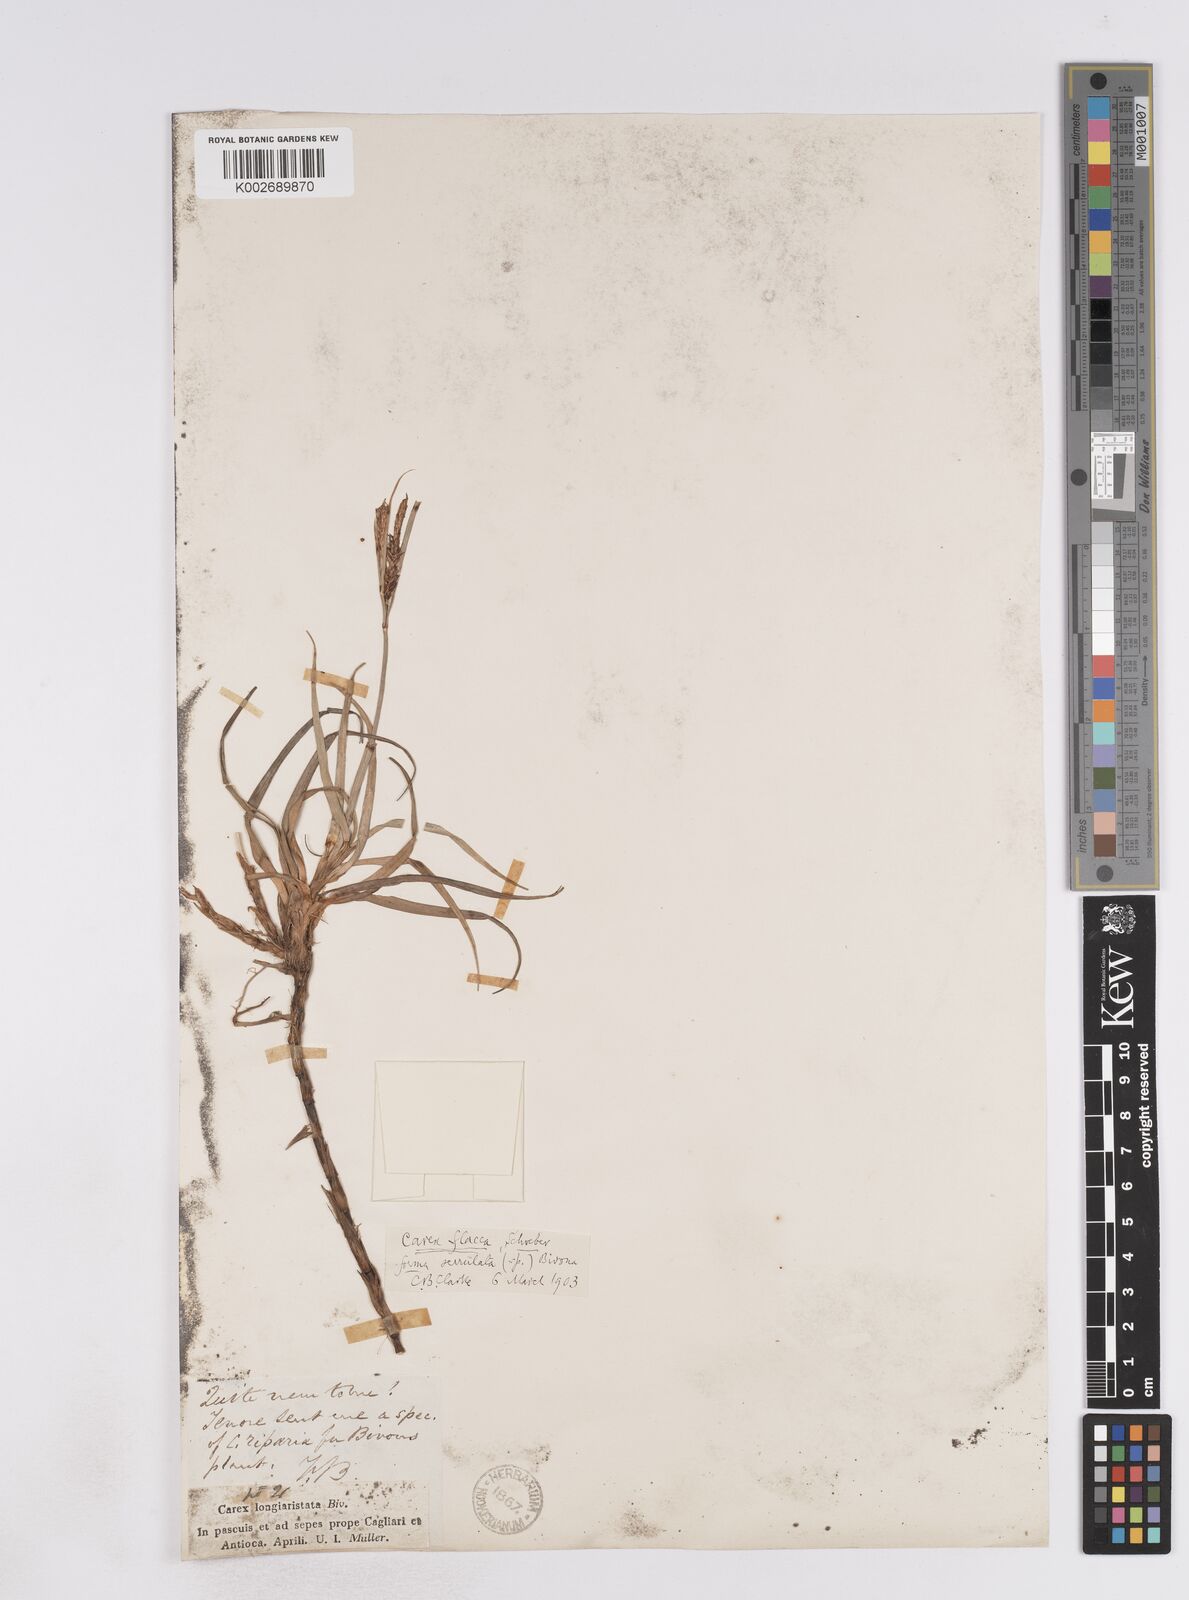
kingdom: Plantae
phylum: Tracheophyta
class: Liliopsida
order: Poales
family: Cyperaceae
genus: Carex
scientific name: Carex hispida
